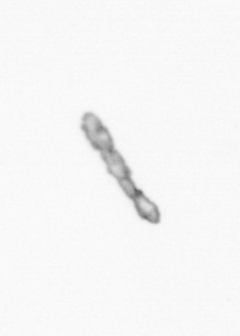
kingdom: Chromista
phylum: Ochrophyta
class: Bacillariophyceae
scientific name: Bacillariophyceae
